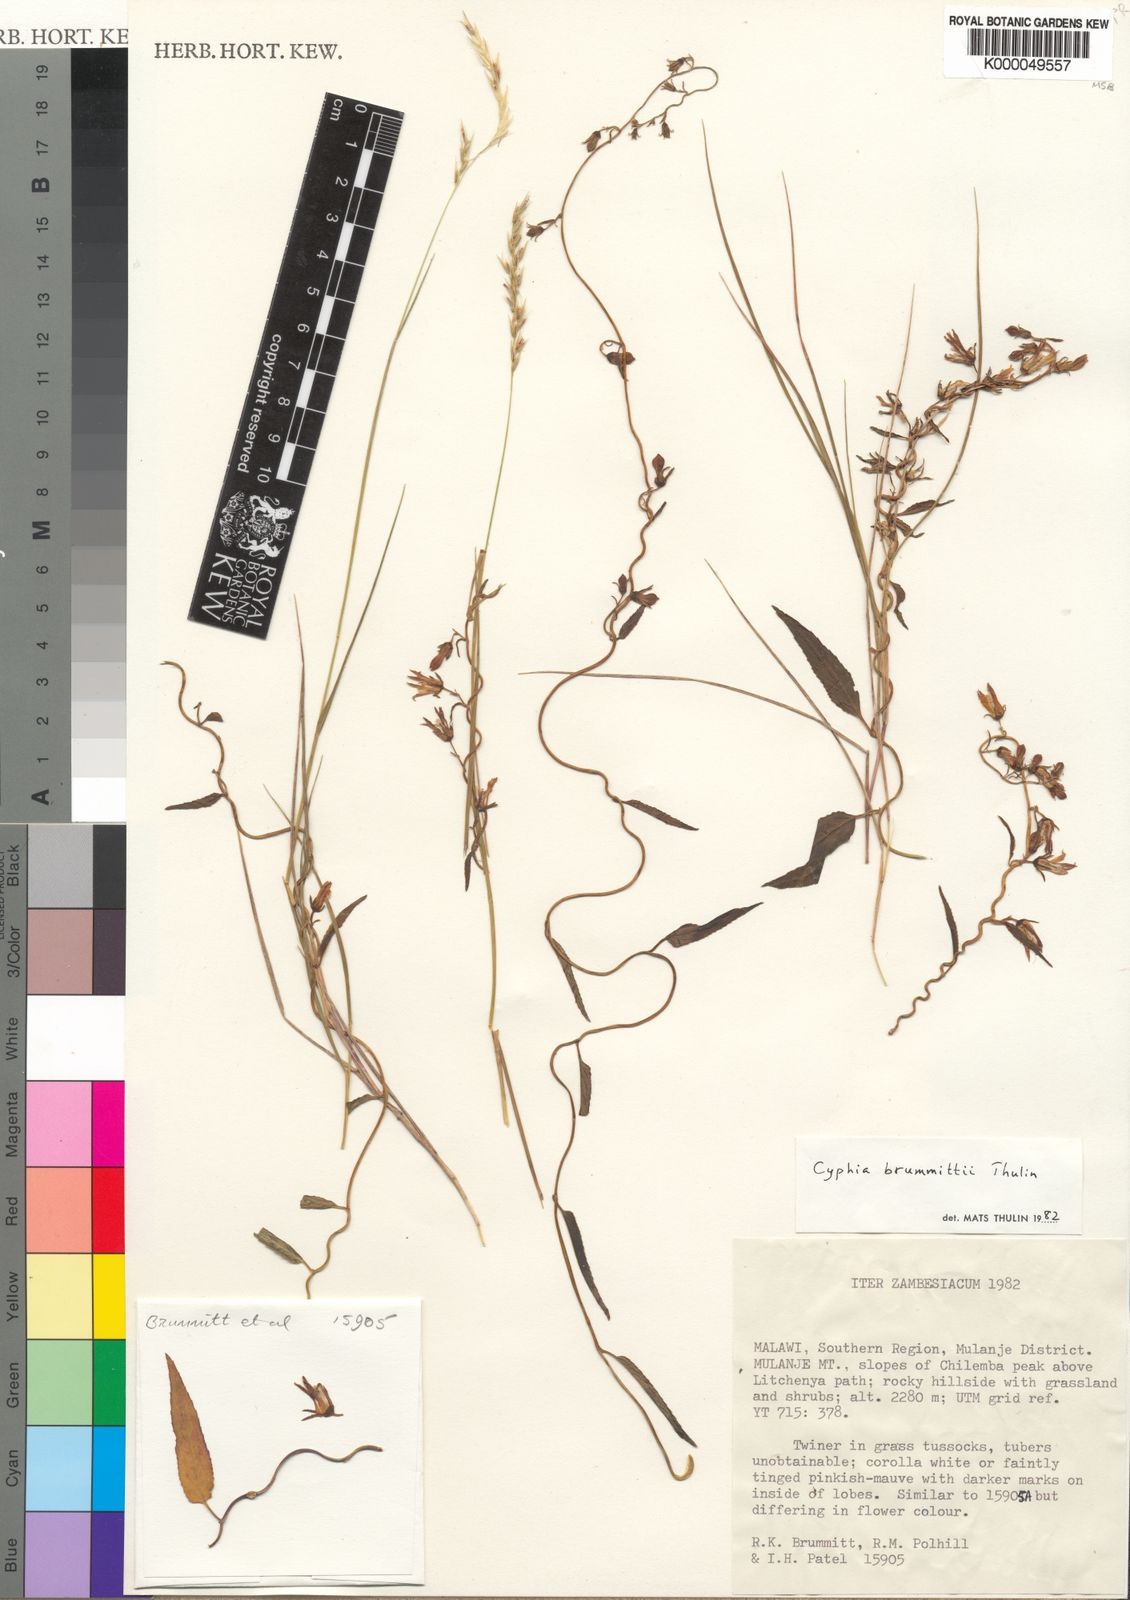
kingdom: Plantae
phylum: Tracheophyta
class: Magnoliopsida
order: Asterales
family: Campanulaceae
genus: Cyphia
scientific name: Cyphia brummittii
